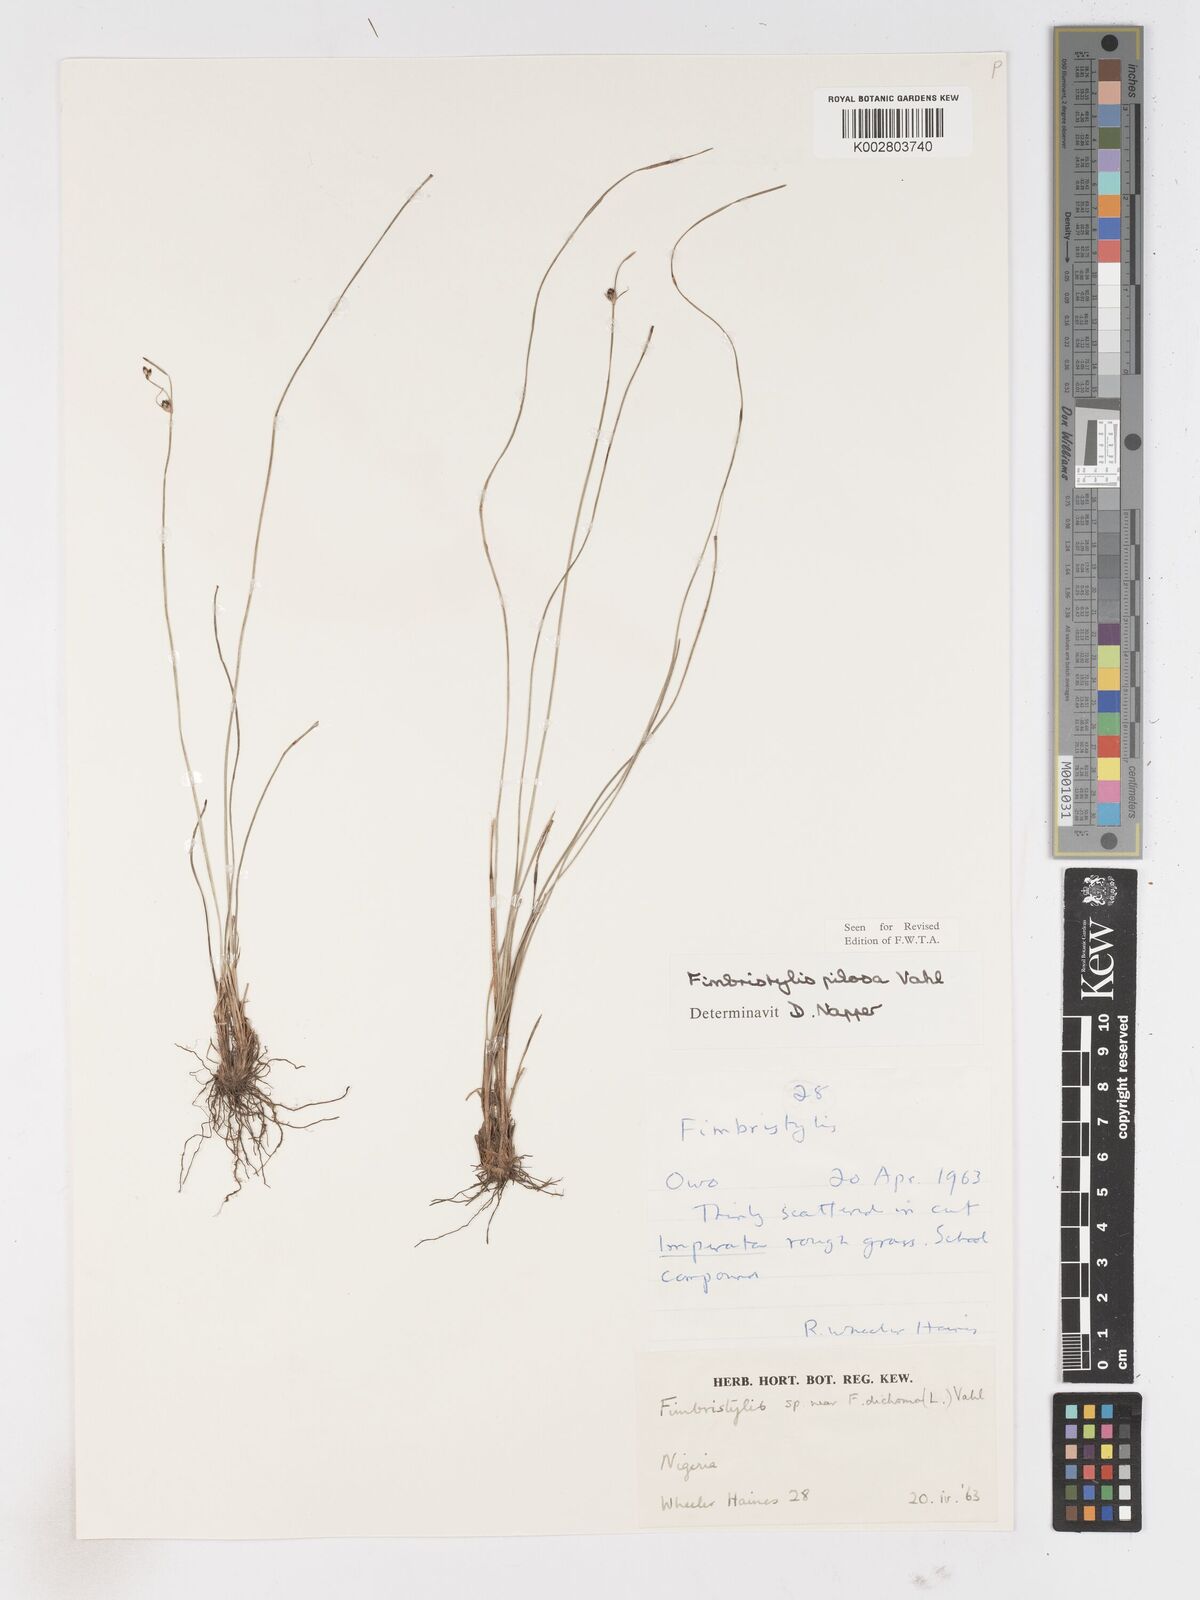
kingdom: Plantae
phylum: Tracheophyta
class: Liliopsida
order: Poales
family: Cyperaceae
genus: Fimbristylis
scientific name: Fimbristylis pilosa
